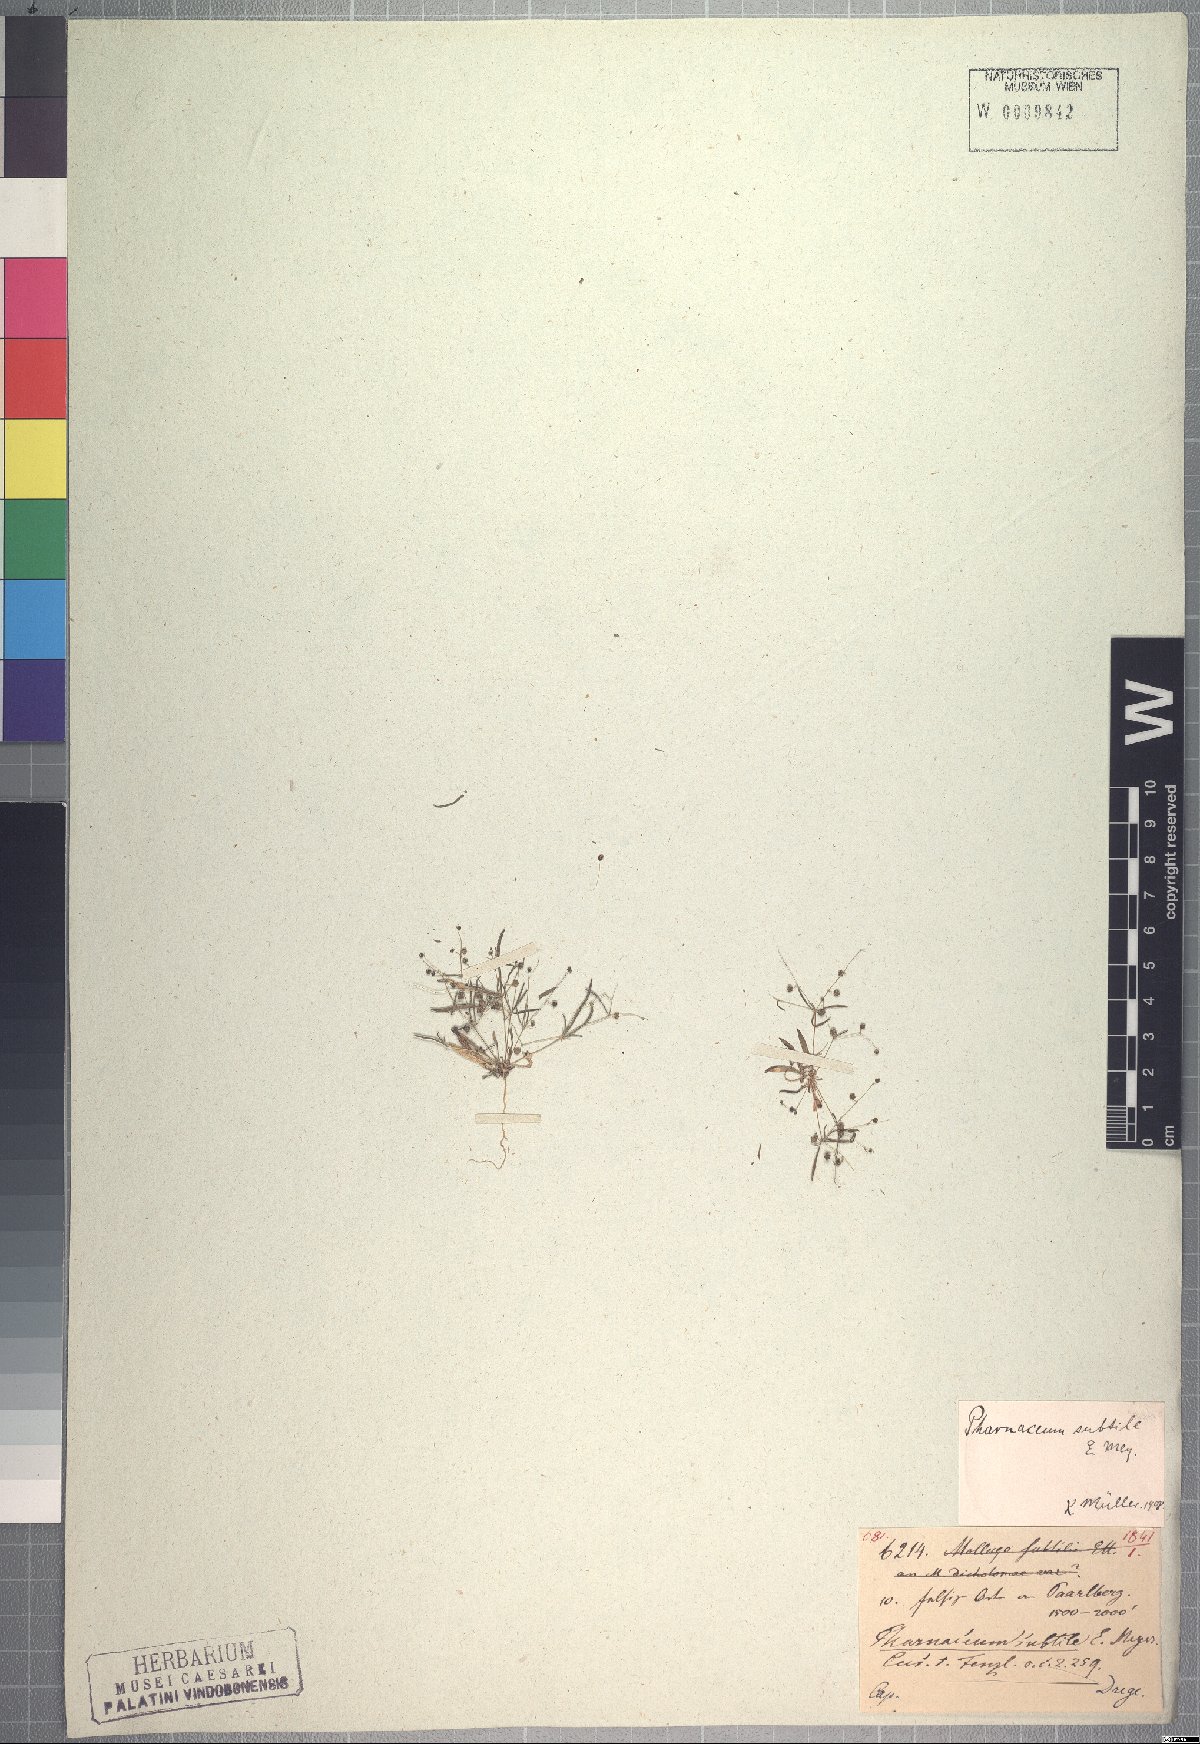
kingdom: Plantae
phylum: Tracheophyta
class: Magnoliopsida
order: Caryophyllales
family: Molluginaceae
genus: Pharnaceum
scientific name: Pharnaceum subtile
